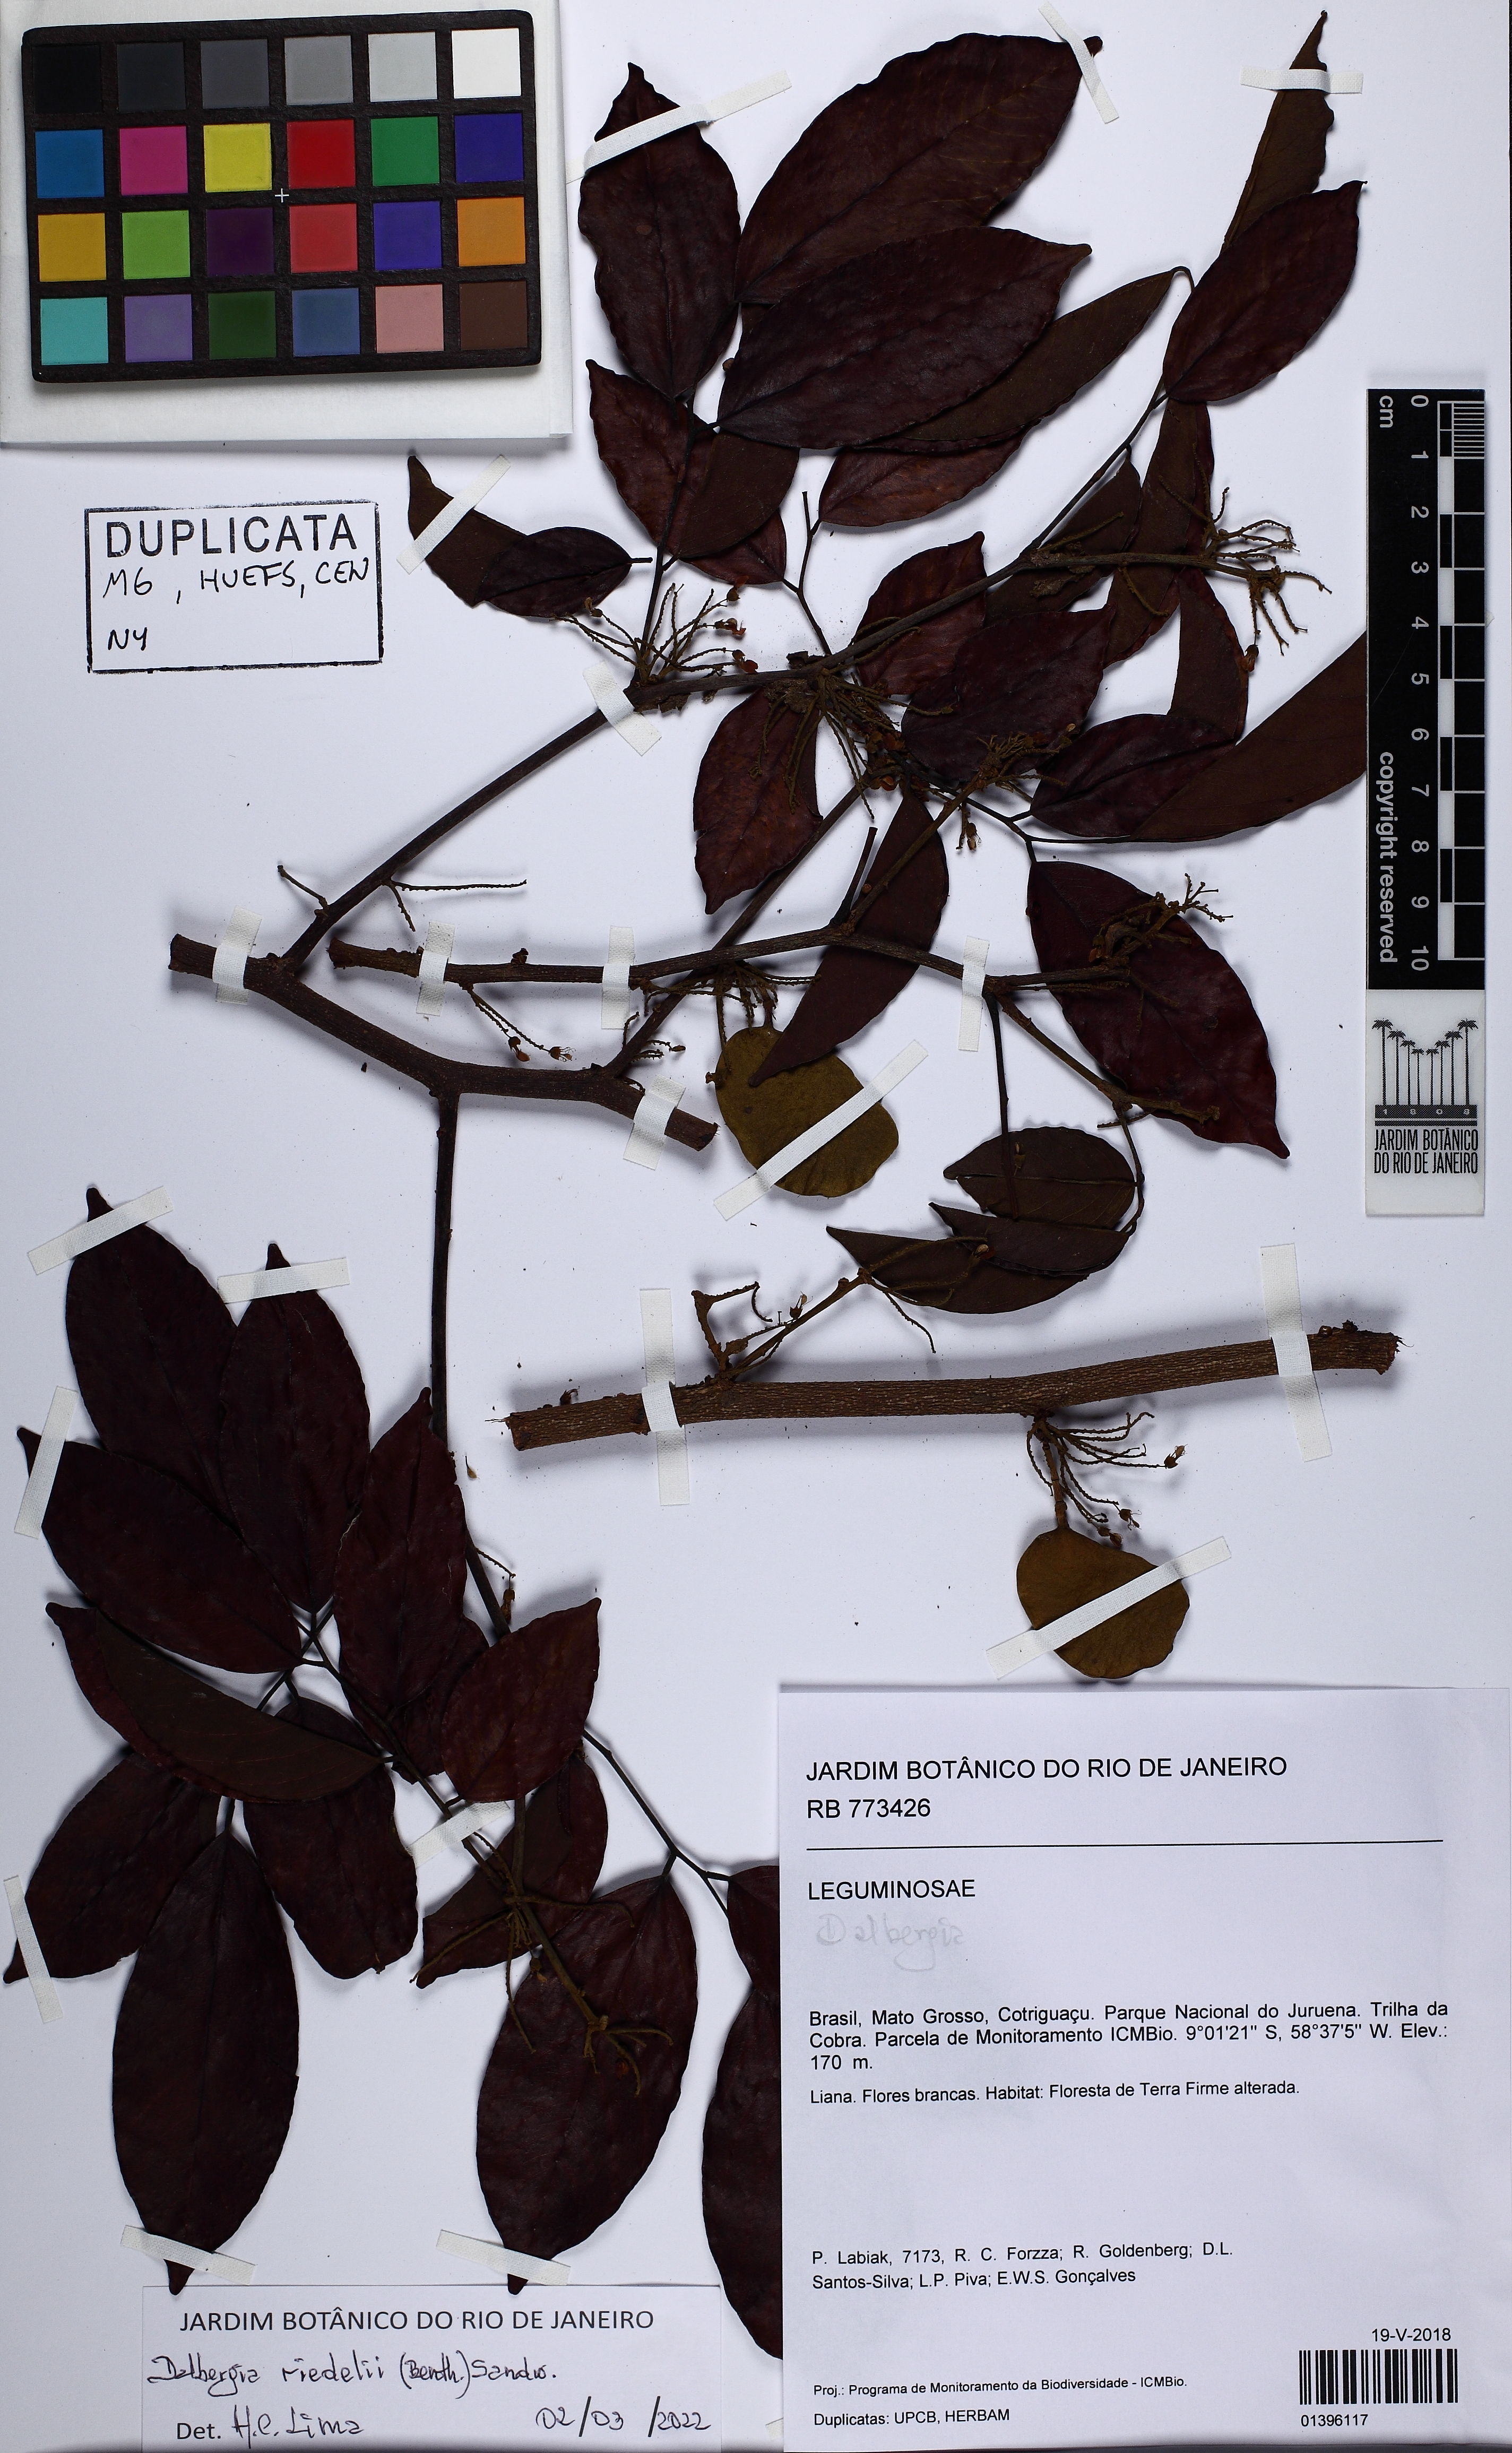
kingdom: Plantae
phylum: Tracheophyta
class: Magnoliopsida
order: Fabales
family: Fabaceae
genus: Dalbergia
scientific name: Dalbergia riedelii
